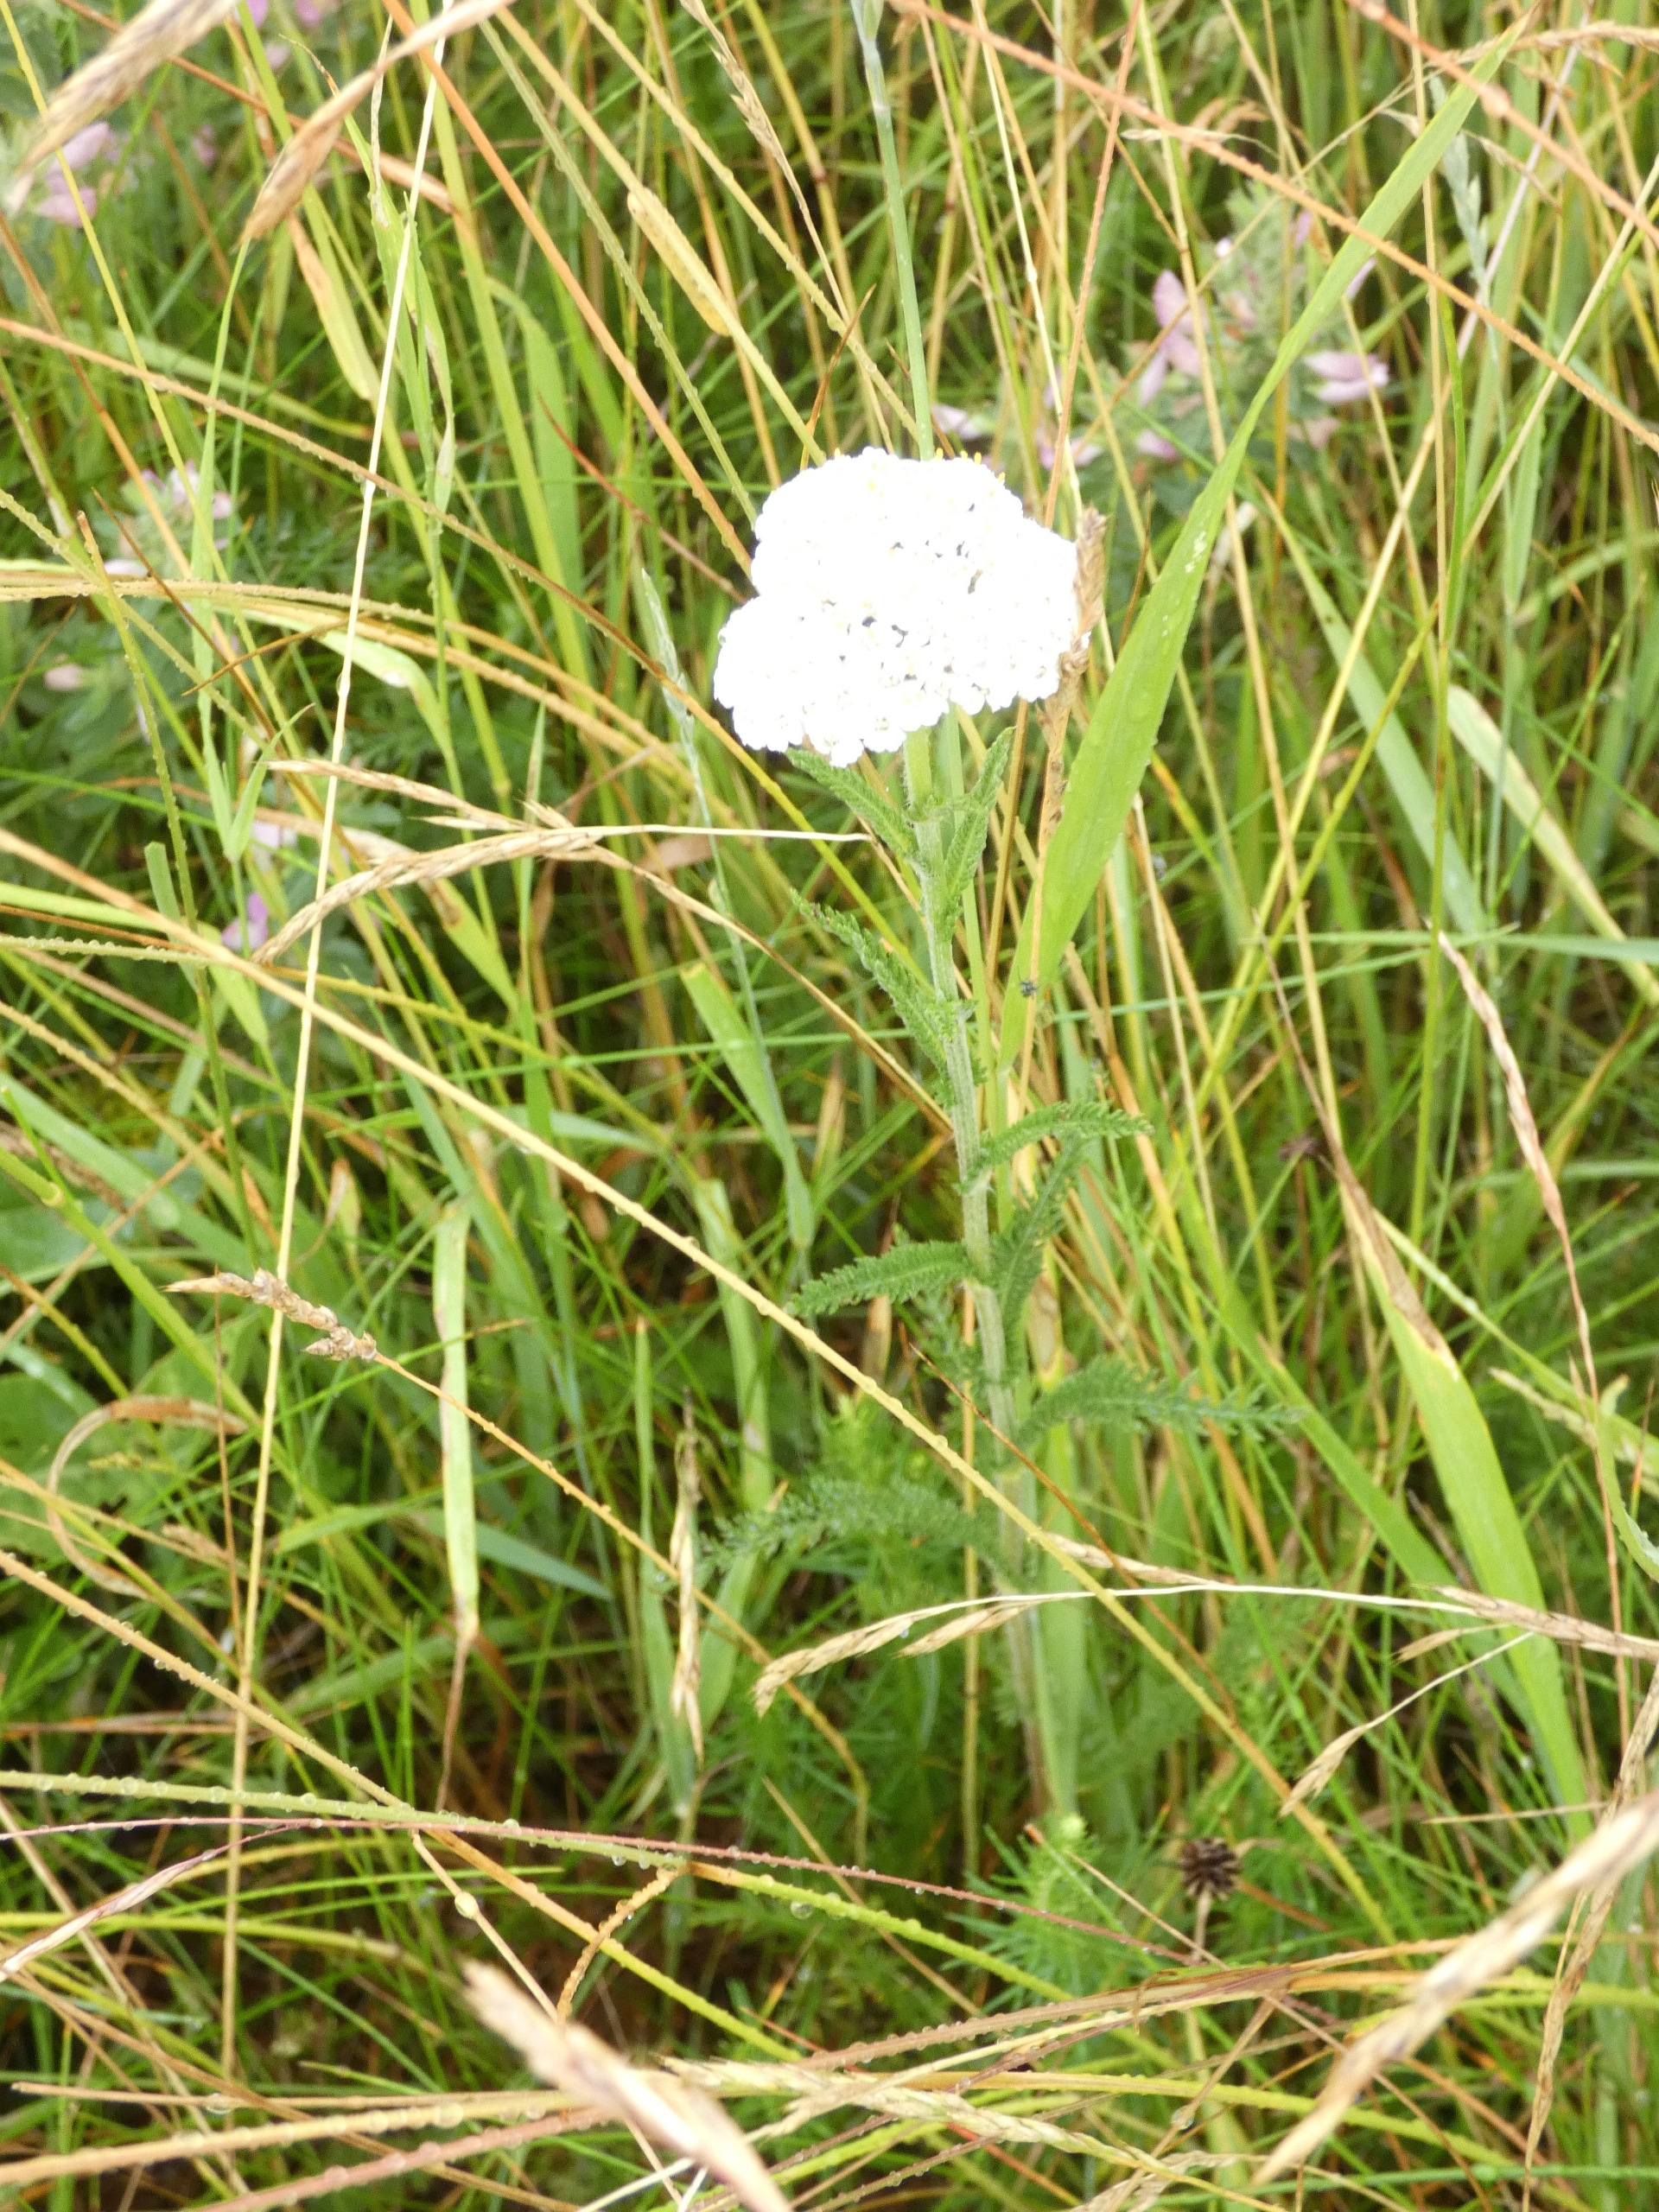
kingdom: Plantae
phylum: Tracheophyta
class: Magnoliopsida
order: Asterales
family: Asteraceae
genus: Achillea
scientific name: Achillea millefolium
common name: Almindelig røllike
